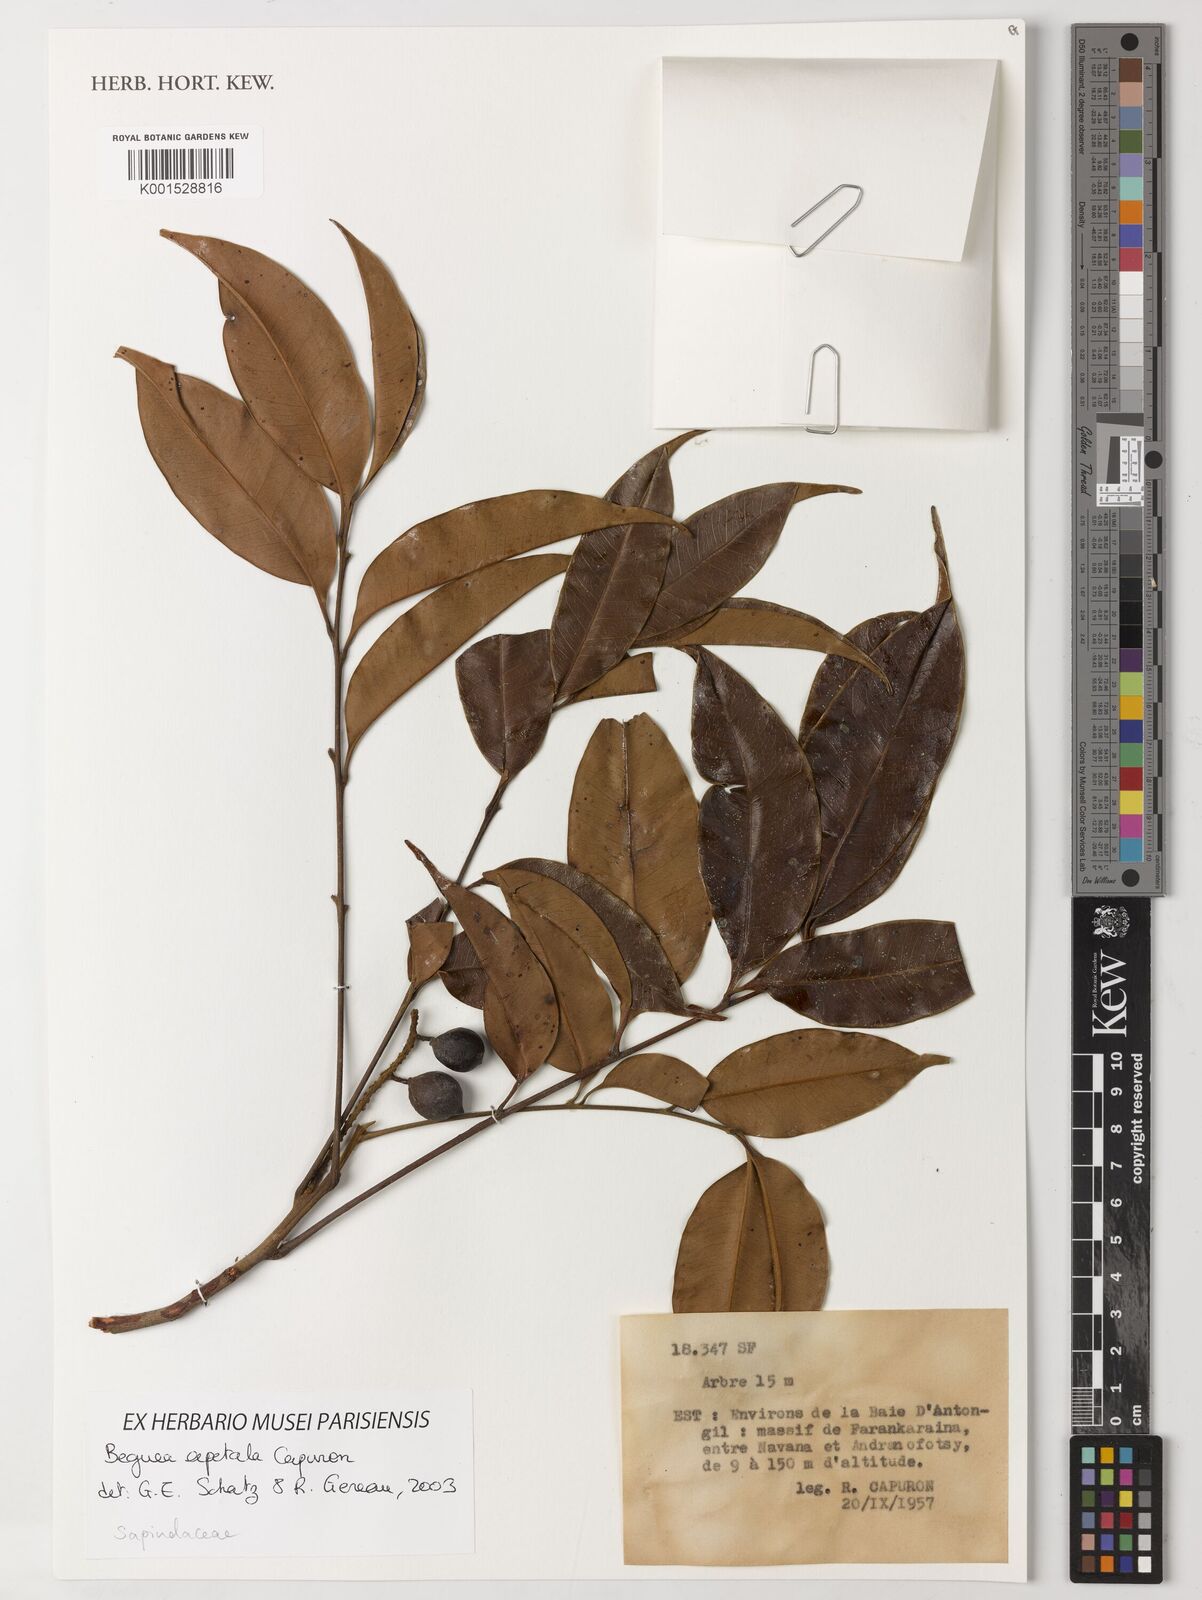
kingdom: Plantae
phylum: Tracheophyta
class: Magnoliopsida
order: Sapindales
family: Sapindaceae
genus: Beguea
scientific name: Beguea apetala
